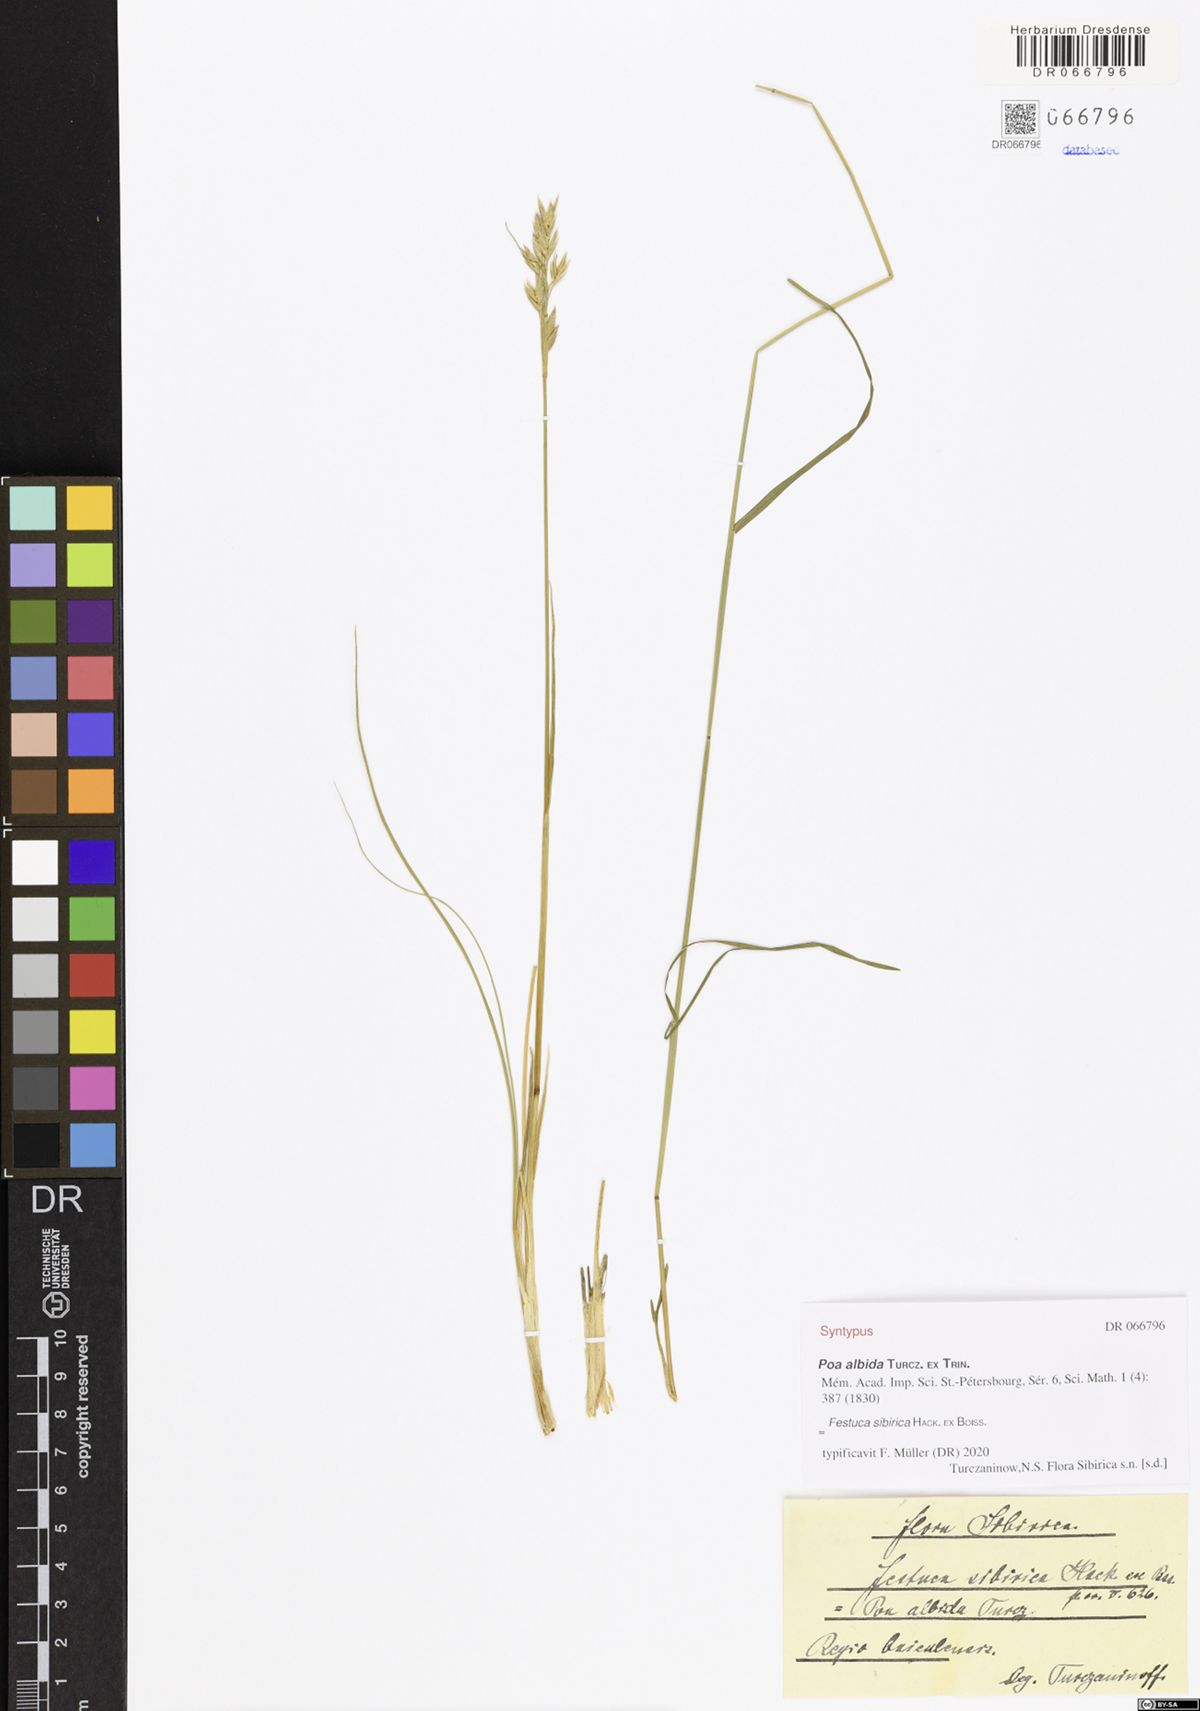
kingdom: Plantae
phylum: Tracheophyta
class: Liliopsida
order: Poales
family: Poaceae
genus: Festuca
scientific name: Festuca sibirica
